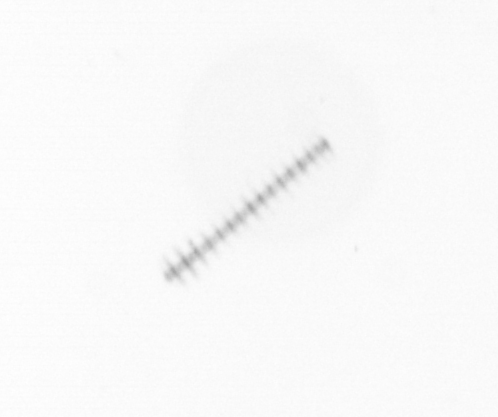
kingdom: Chromista
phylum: Ochrophyta
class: Bacillariophyceae
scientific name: Bacillariophyceae
